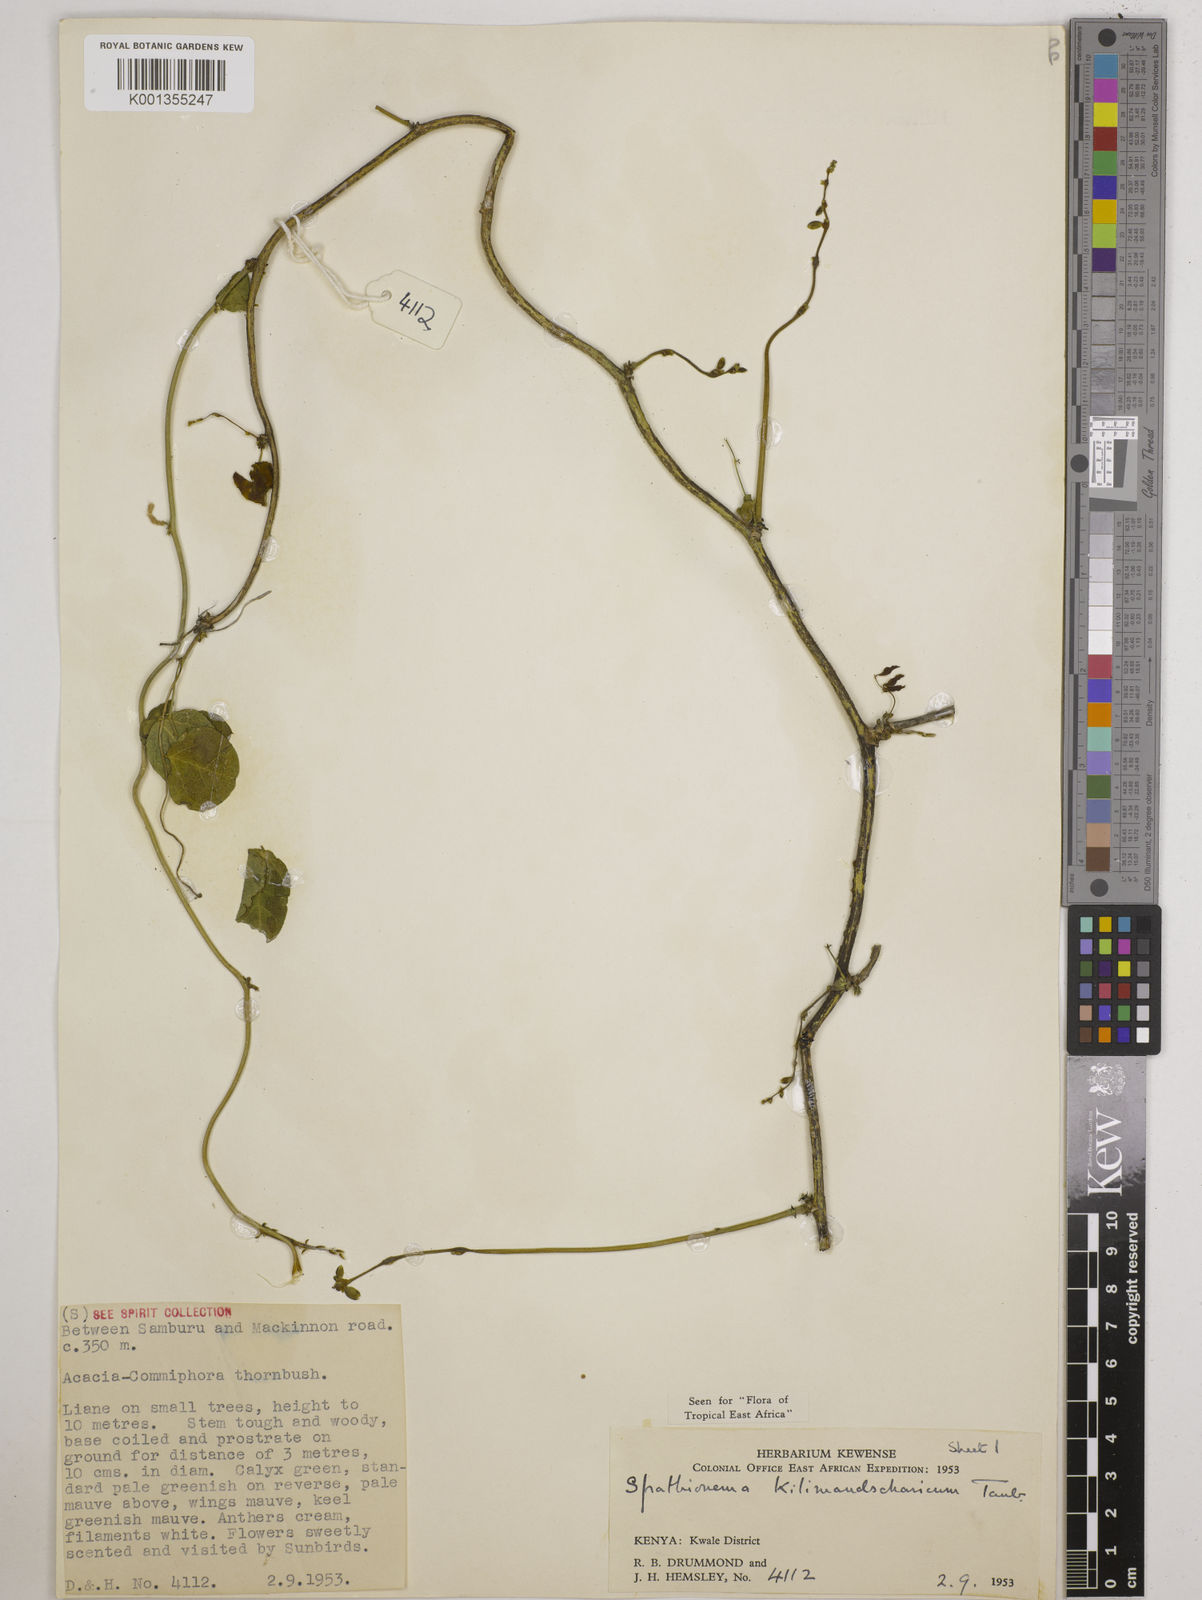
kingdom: Plantae
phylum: Tracheophyta
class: Magnoliopsida
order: Fabales
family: Fabaceae
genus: Spathionema
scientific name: Spathionema kilimandscharicum
